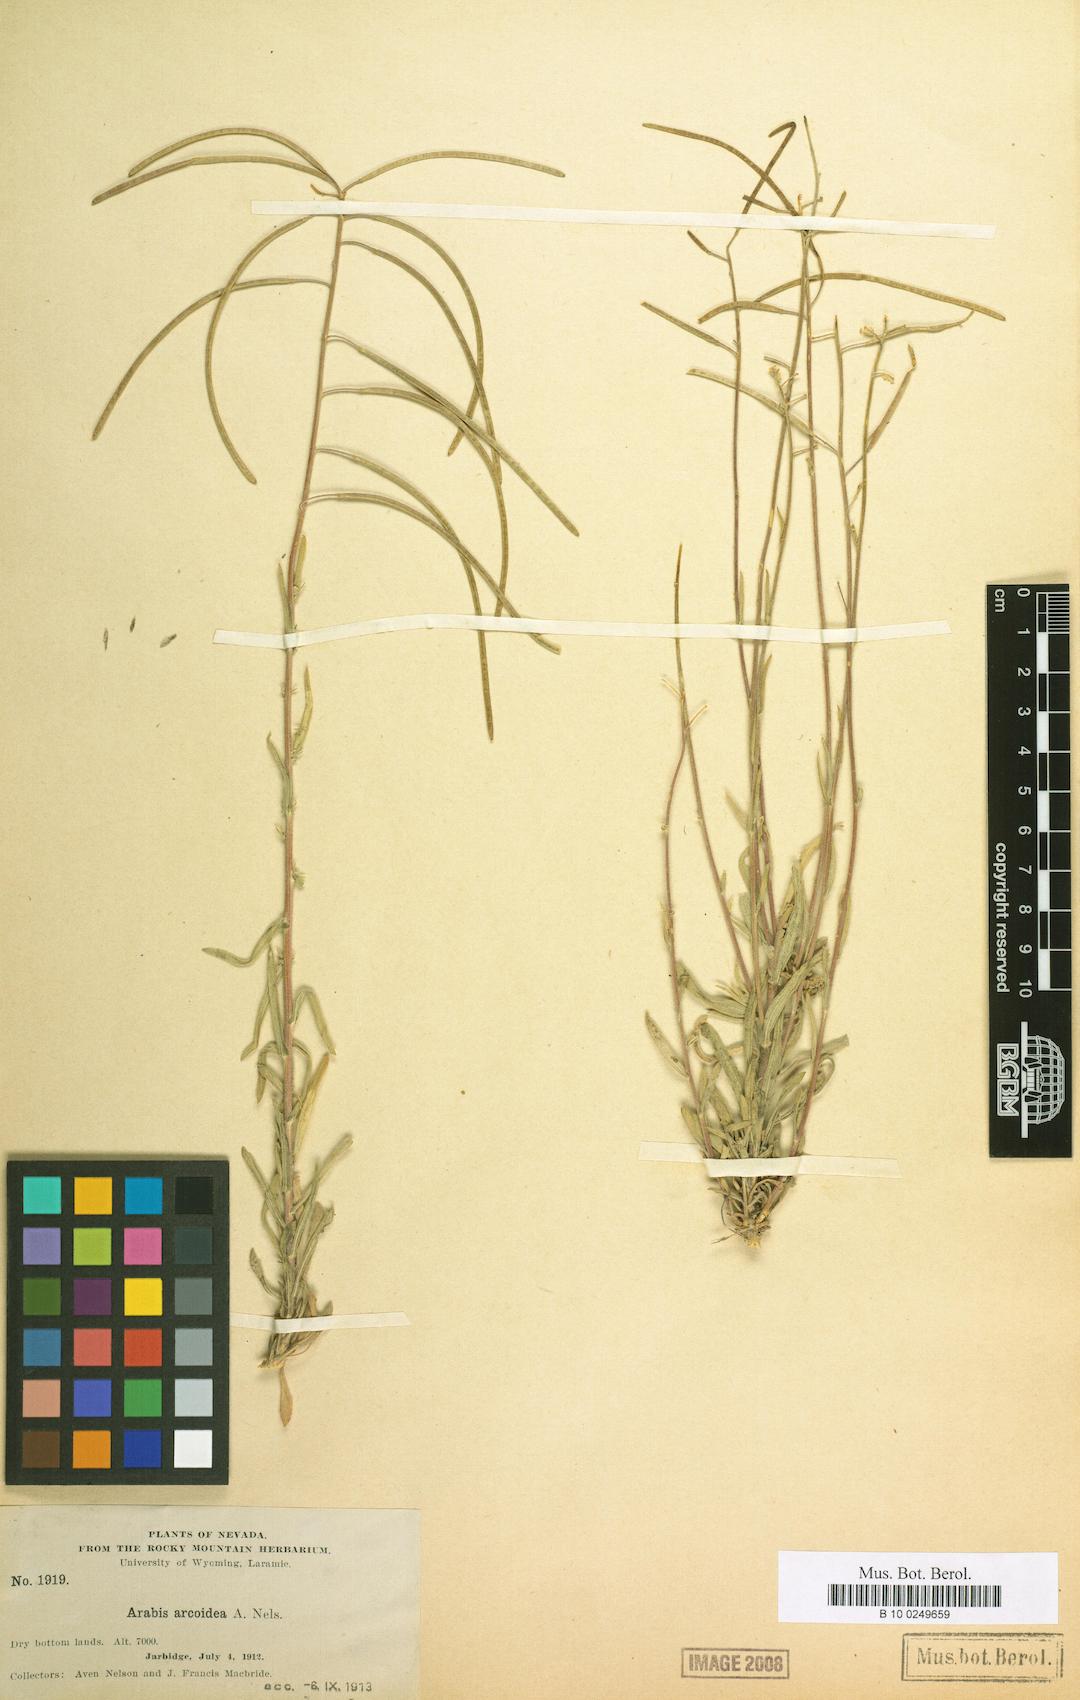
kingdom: Plantae
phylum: Tracheophyta
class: Magnoliopsida
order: Brassicales
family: Brassicaceae
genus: Boechera
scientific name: Boechera sparsiflora
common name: Elegant rockcress
